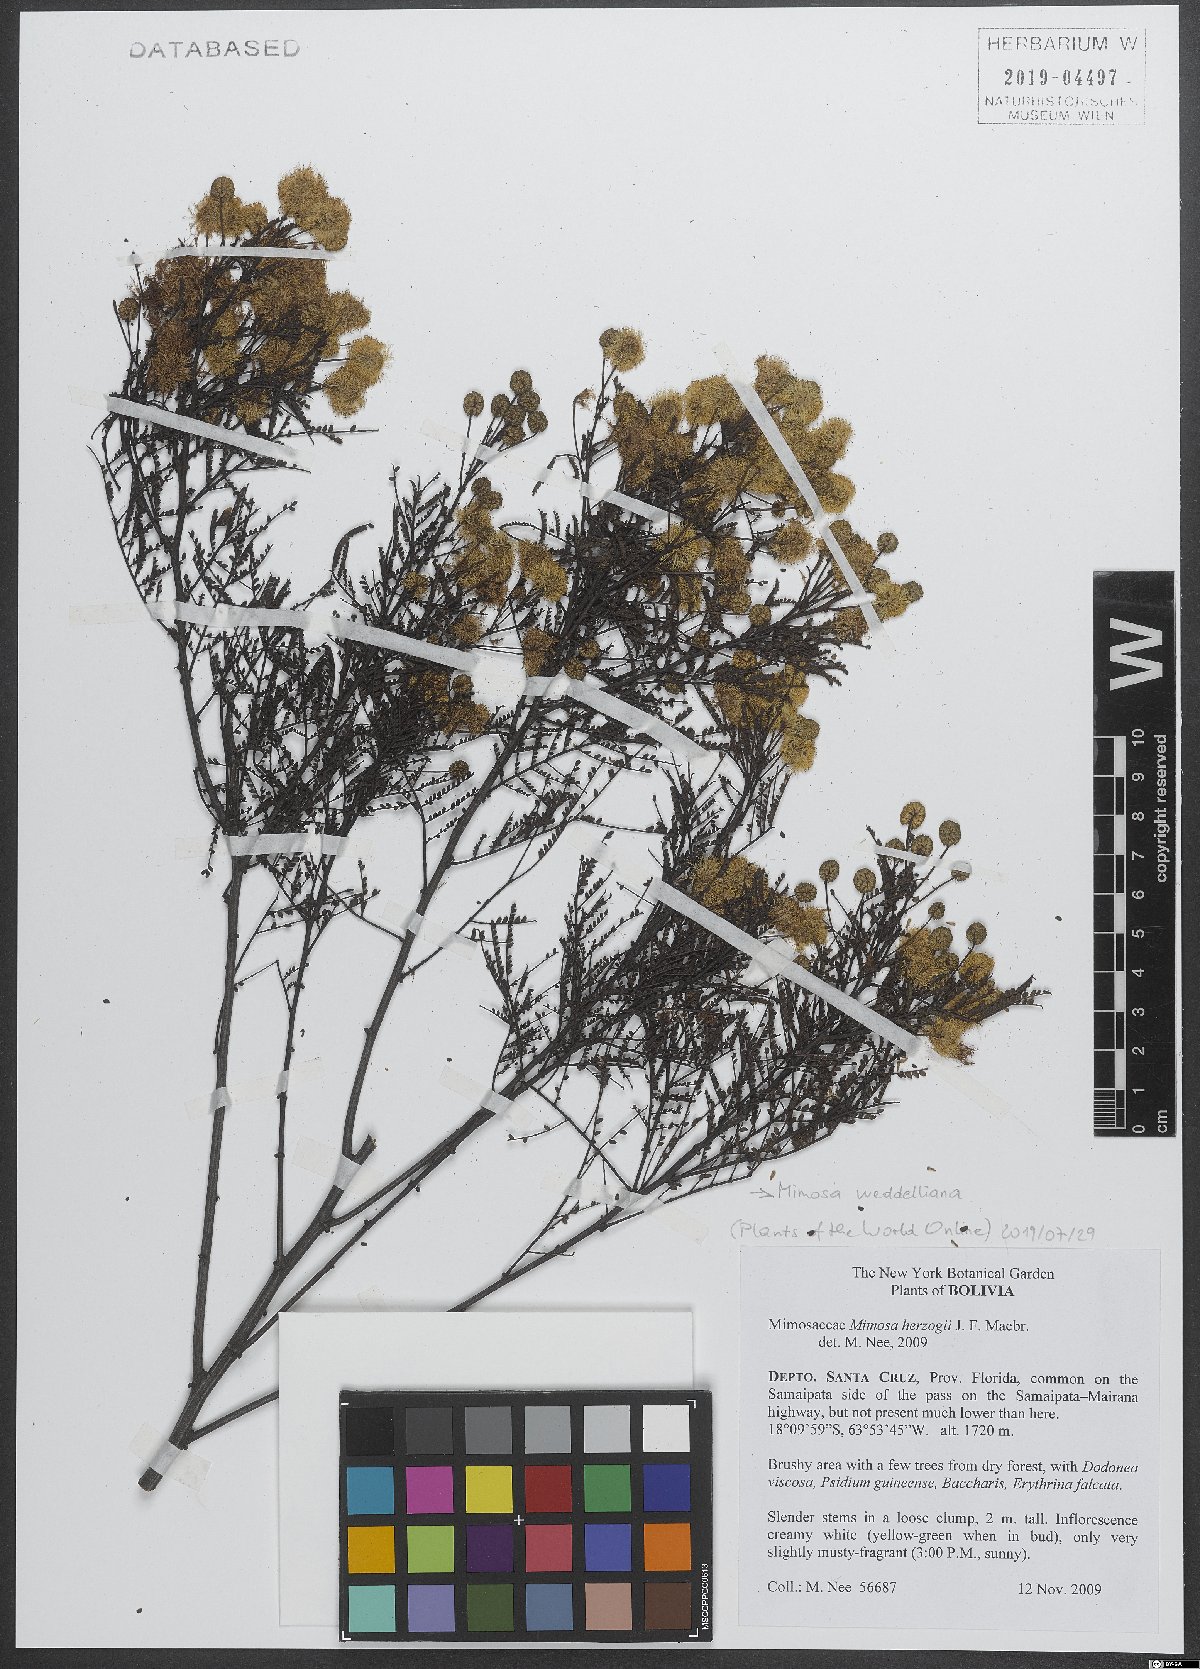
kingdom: Plantae
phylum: Tracheophyta
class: Magnoliopsida
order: Fabales
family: Fabaceae
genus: Mimosa
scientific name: Mimosa weddelliana
